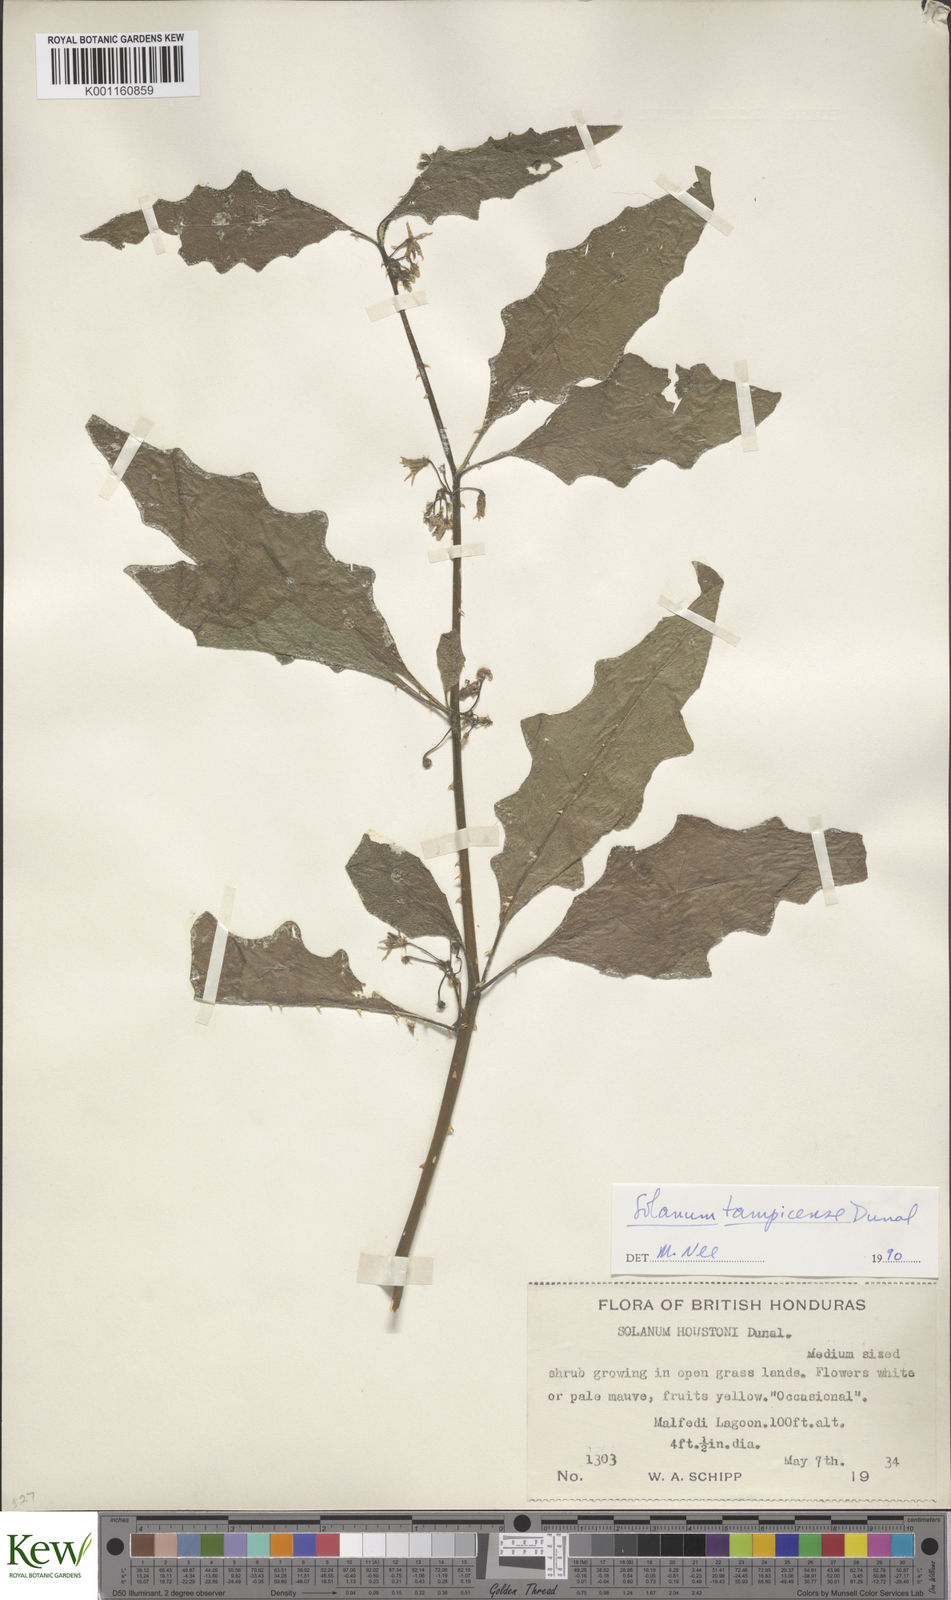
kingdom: Plantae
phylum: Tracheophyta
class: Magnoliopsida
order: Solanales
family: Solanaceae
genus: Solanum
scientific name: Solanum tampicense
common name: Scrambling nightshade
